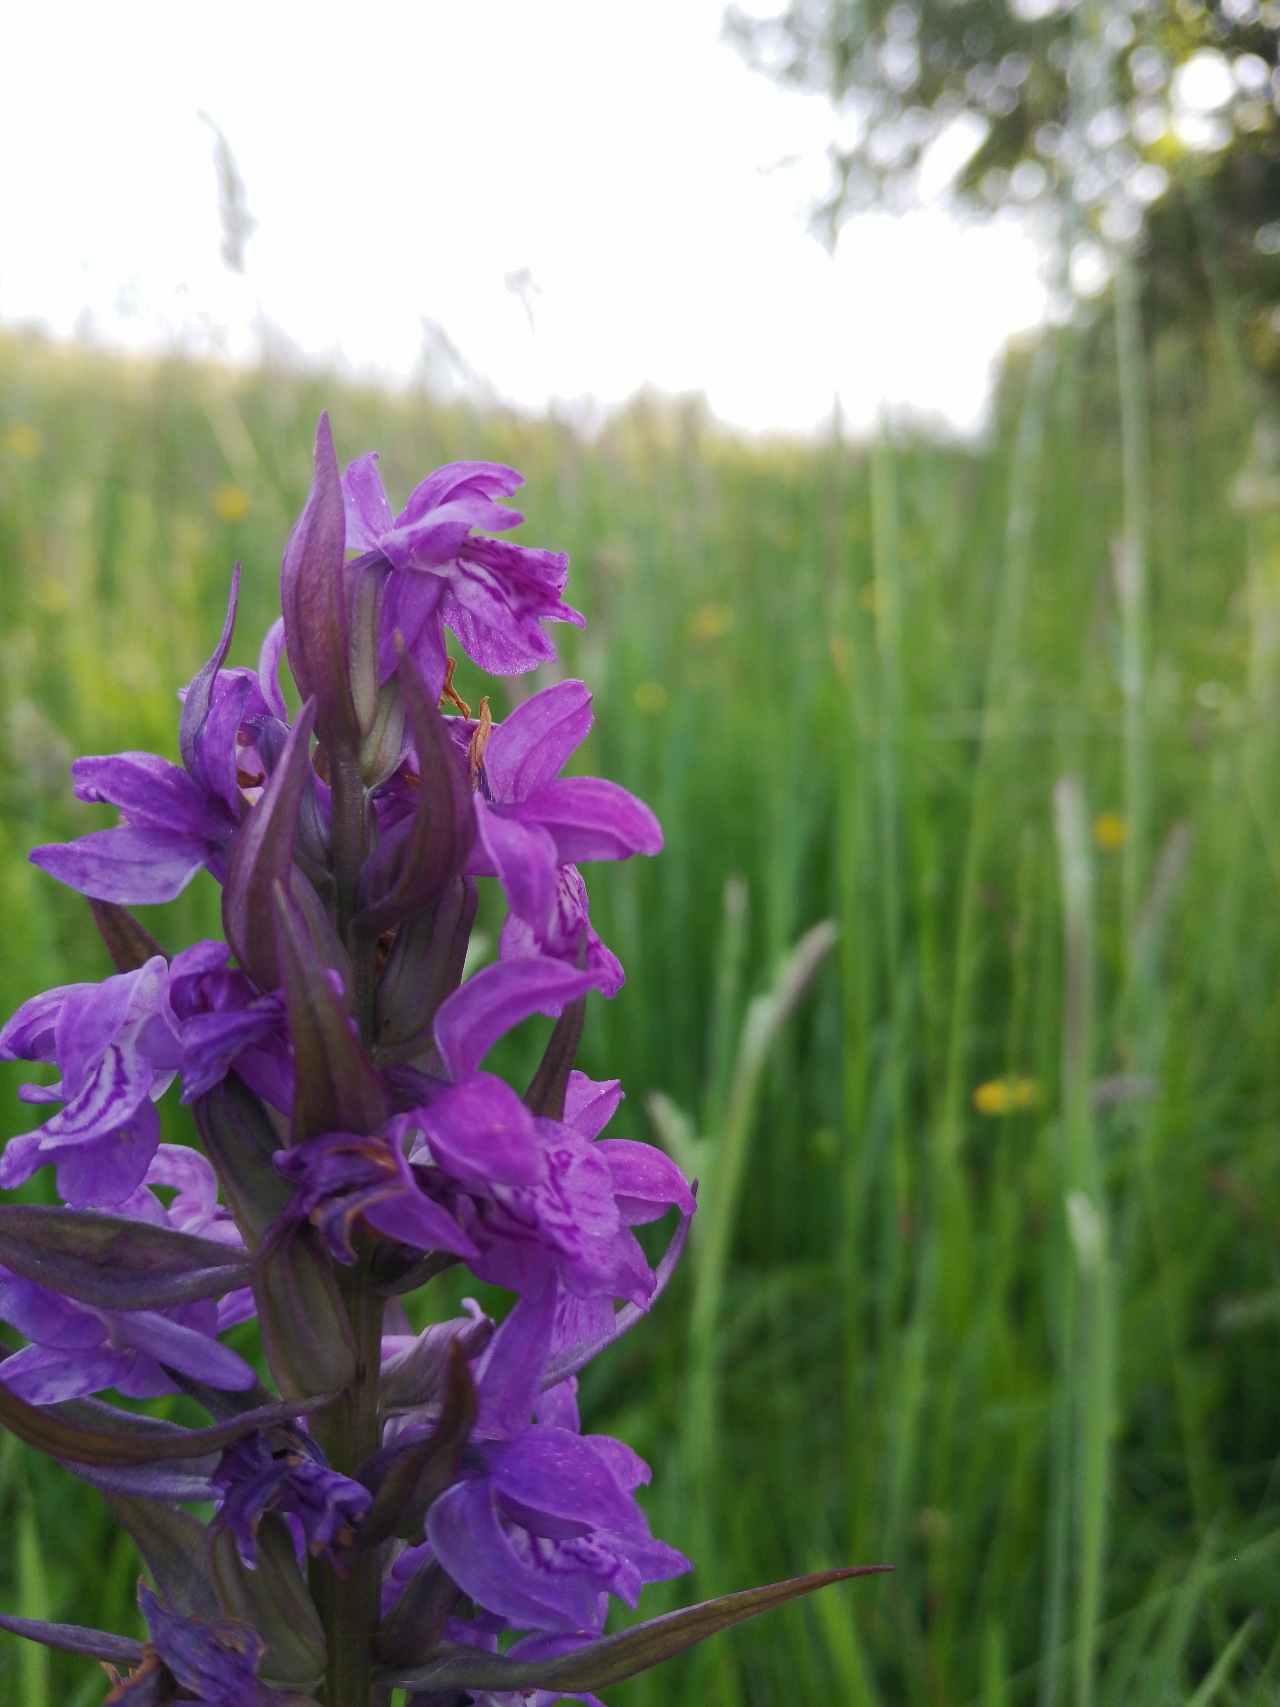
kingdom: Plantae
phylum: Tracheophyta
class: Liliopsida
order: Asparagales
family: Orchidaceae
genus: Dactylorhiza
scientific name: Dactylorhiza majalis
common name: Maj-gøgeurt
